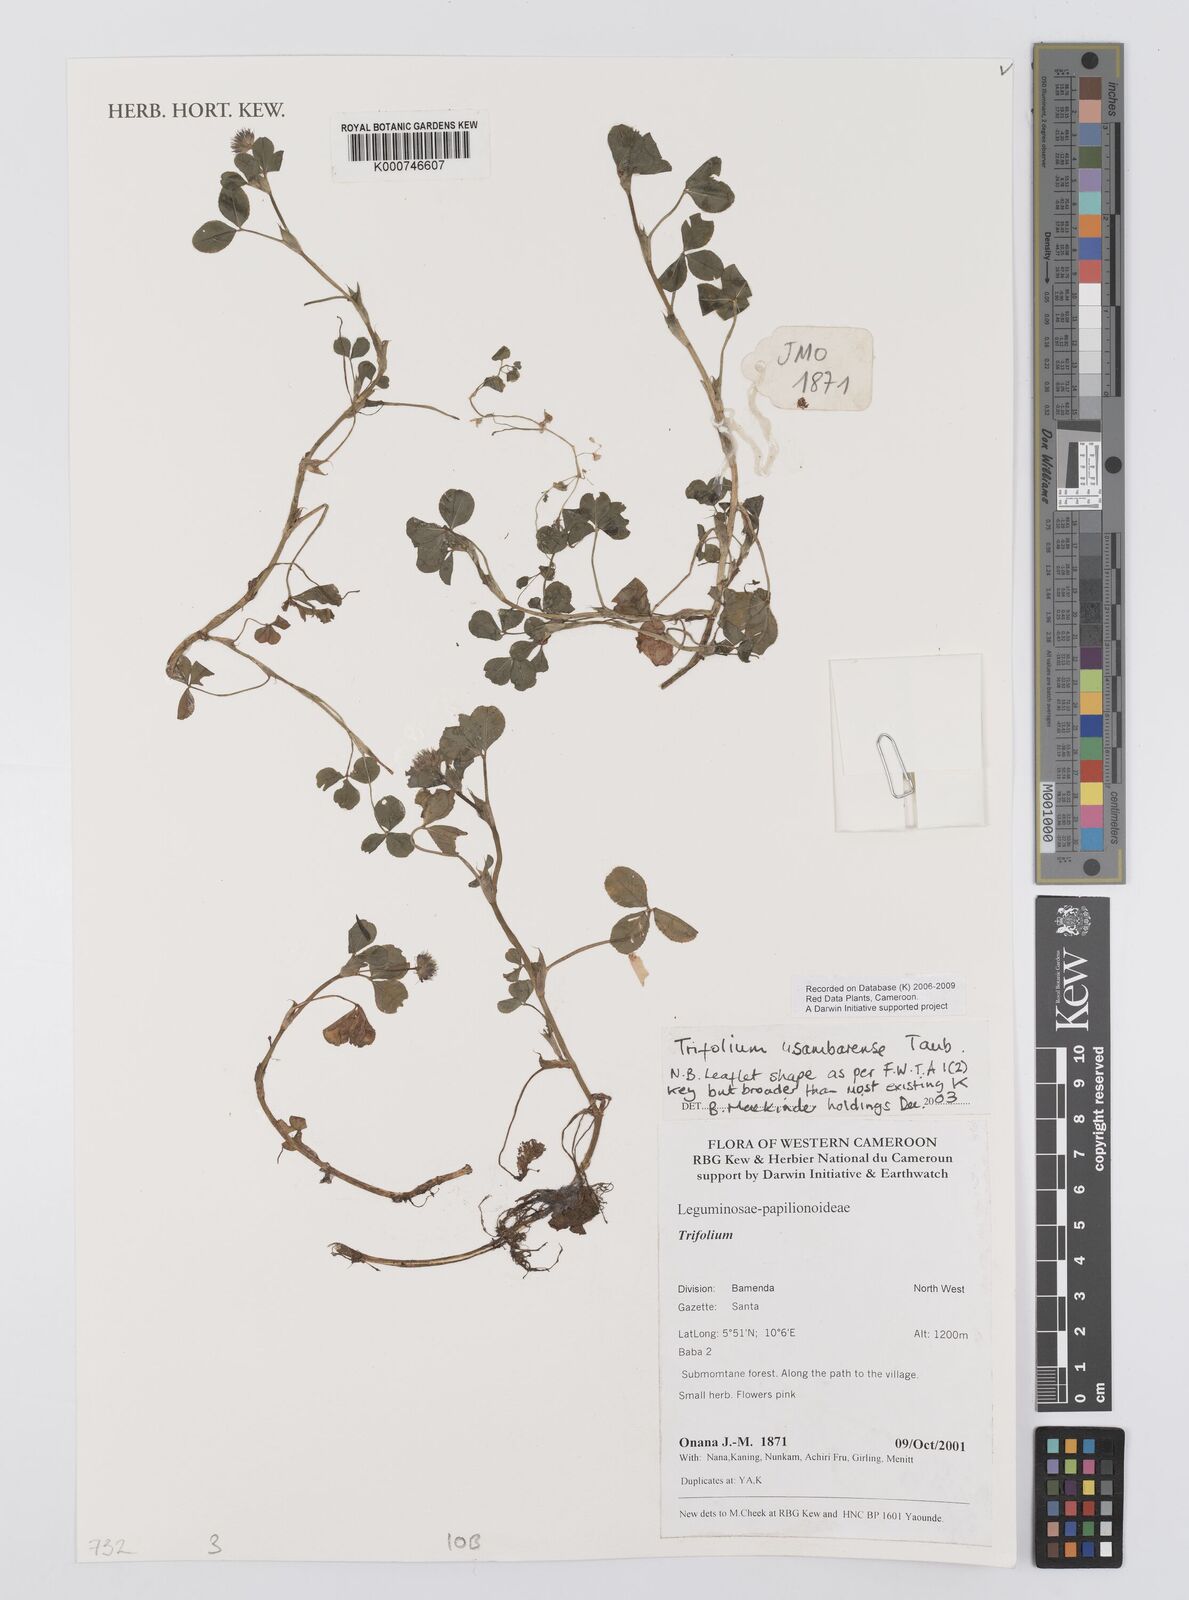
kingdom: Plantae
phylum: Tracheophyta
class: Magnoliopsida
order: Fabales
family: Fabaceae
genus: Trifolium
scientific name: Trifolium usambarense
